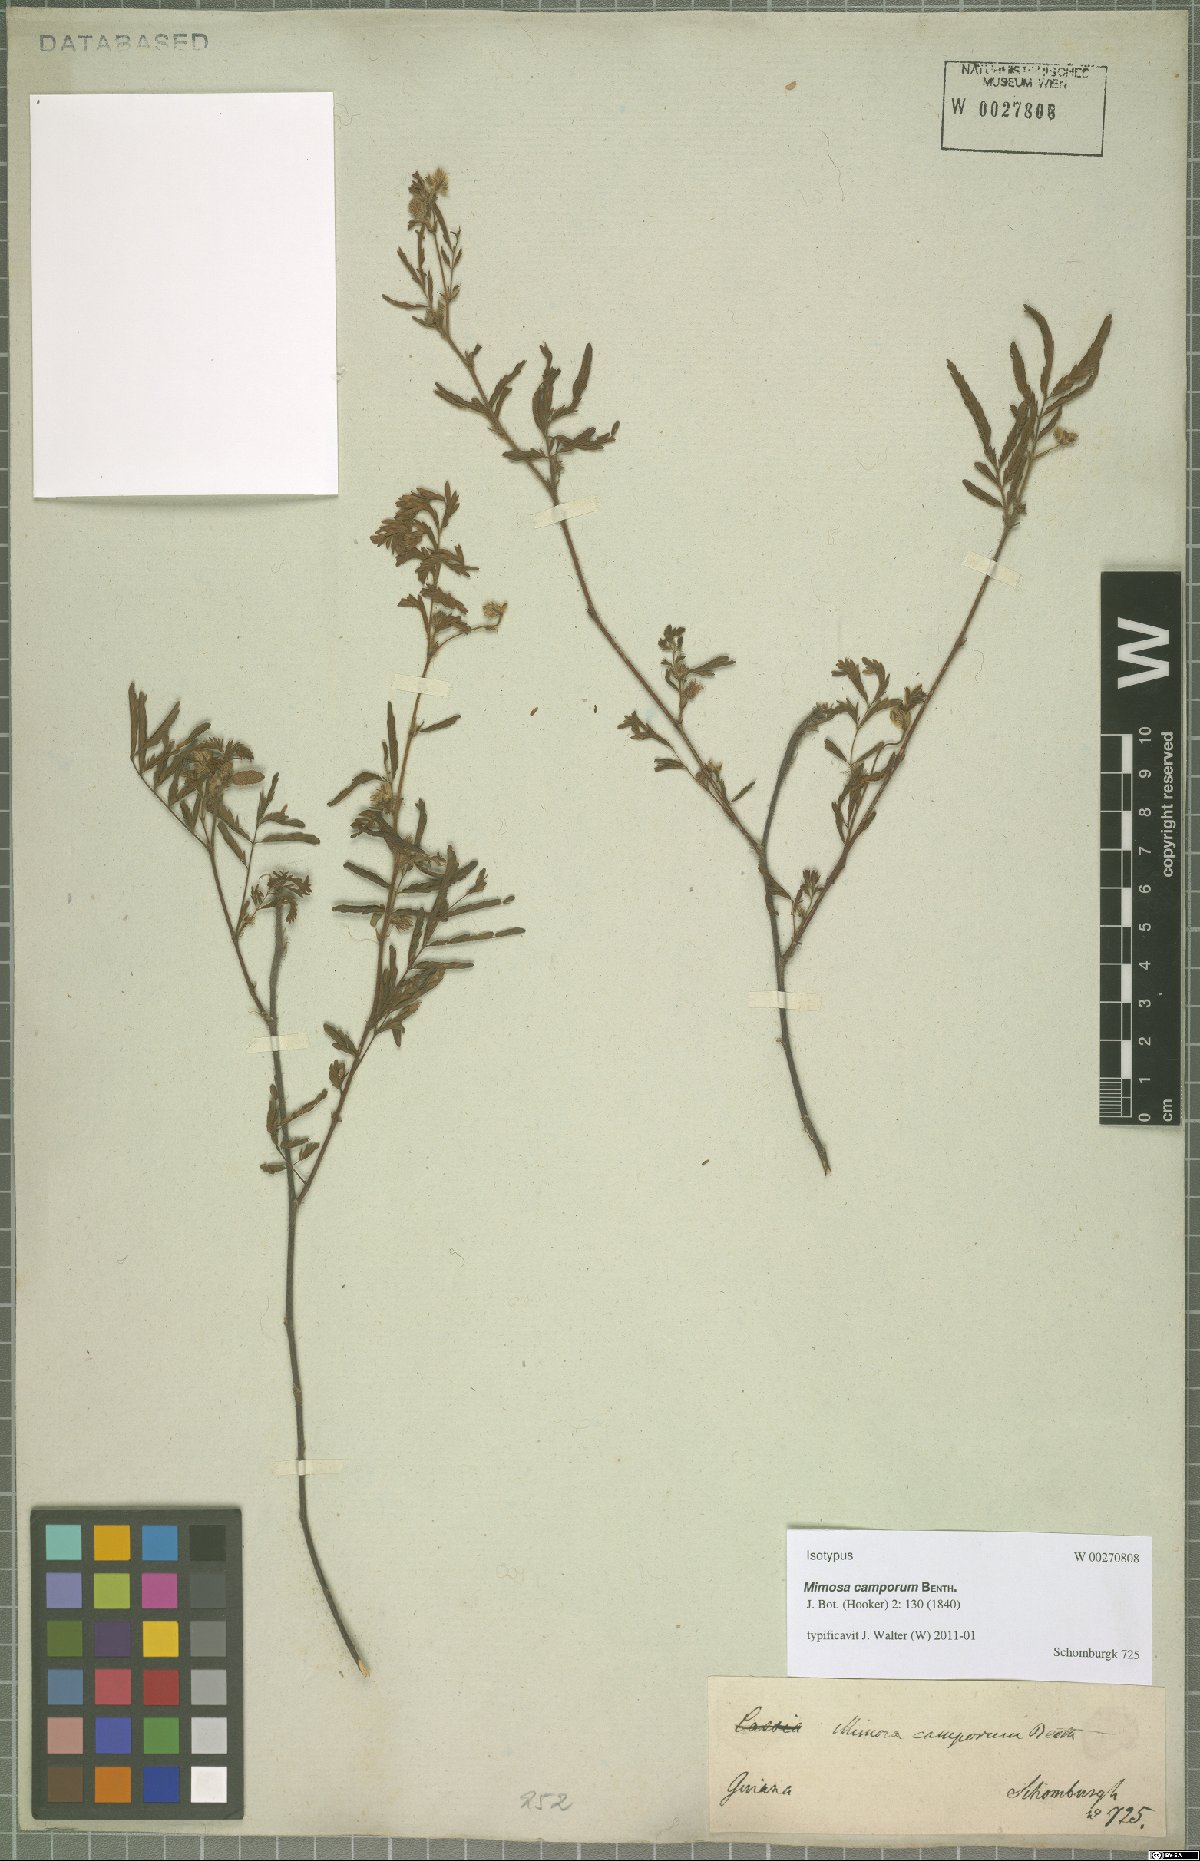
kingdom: Plantae
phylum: Tracheophyta
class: Magnoliopsida
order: Fabales
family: Fabaceae
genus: Mimosa
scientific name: Mimosa camporum
